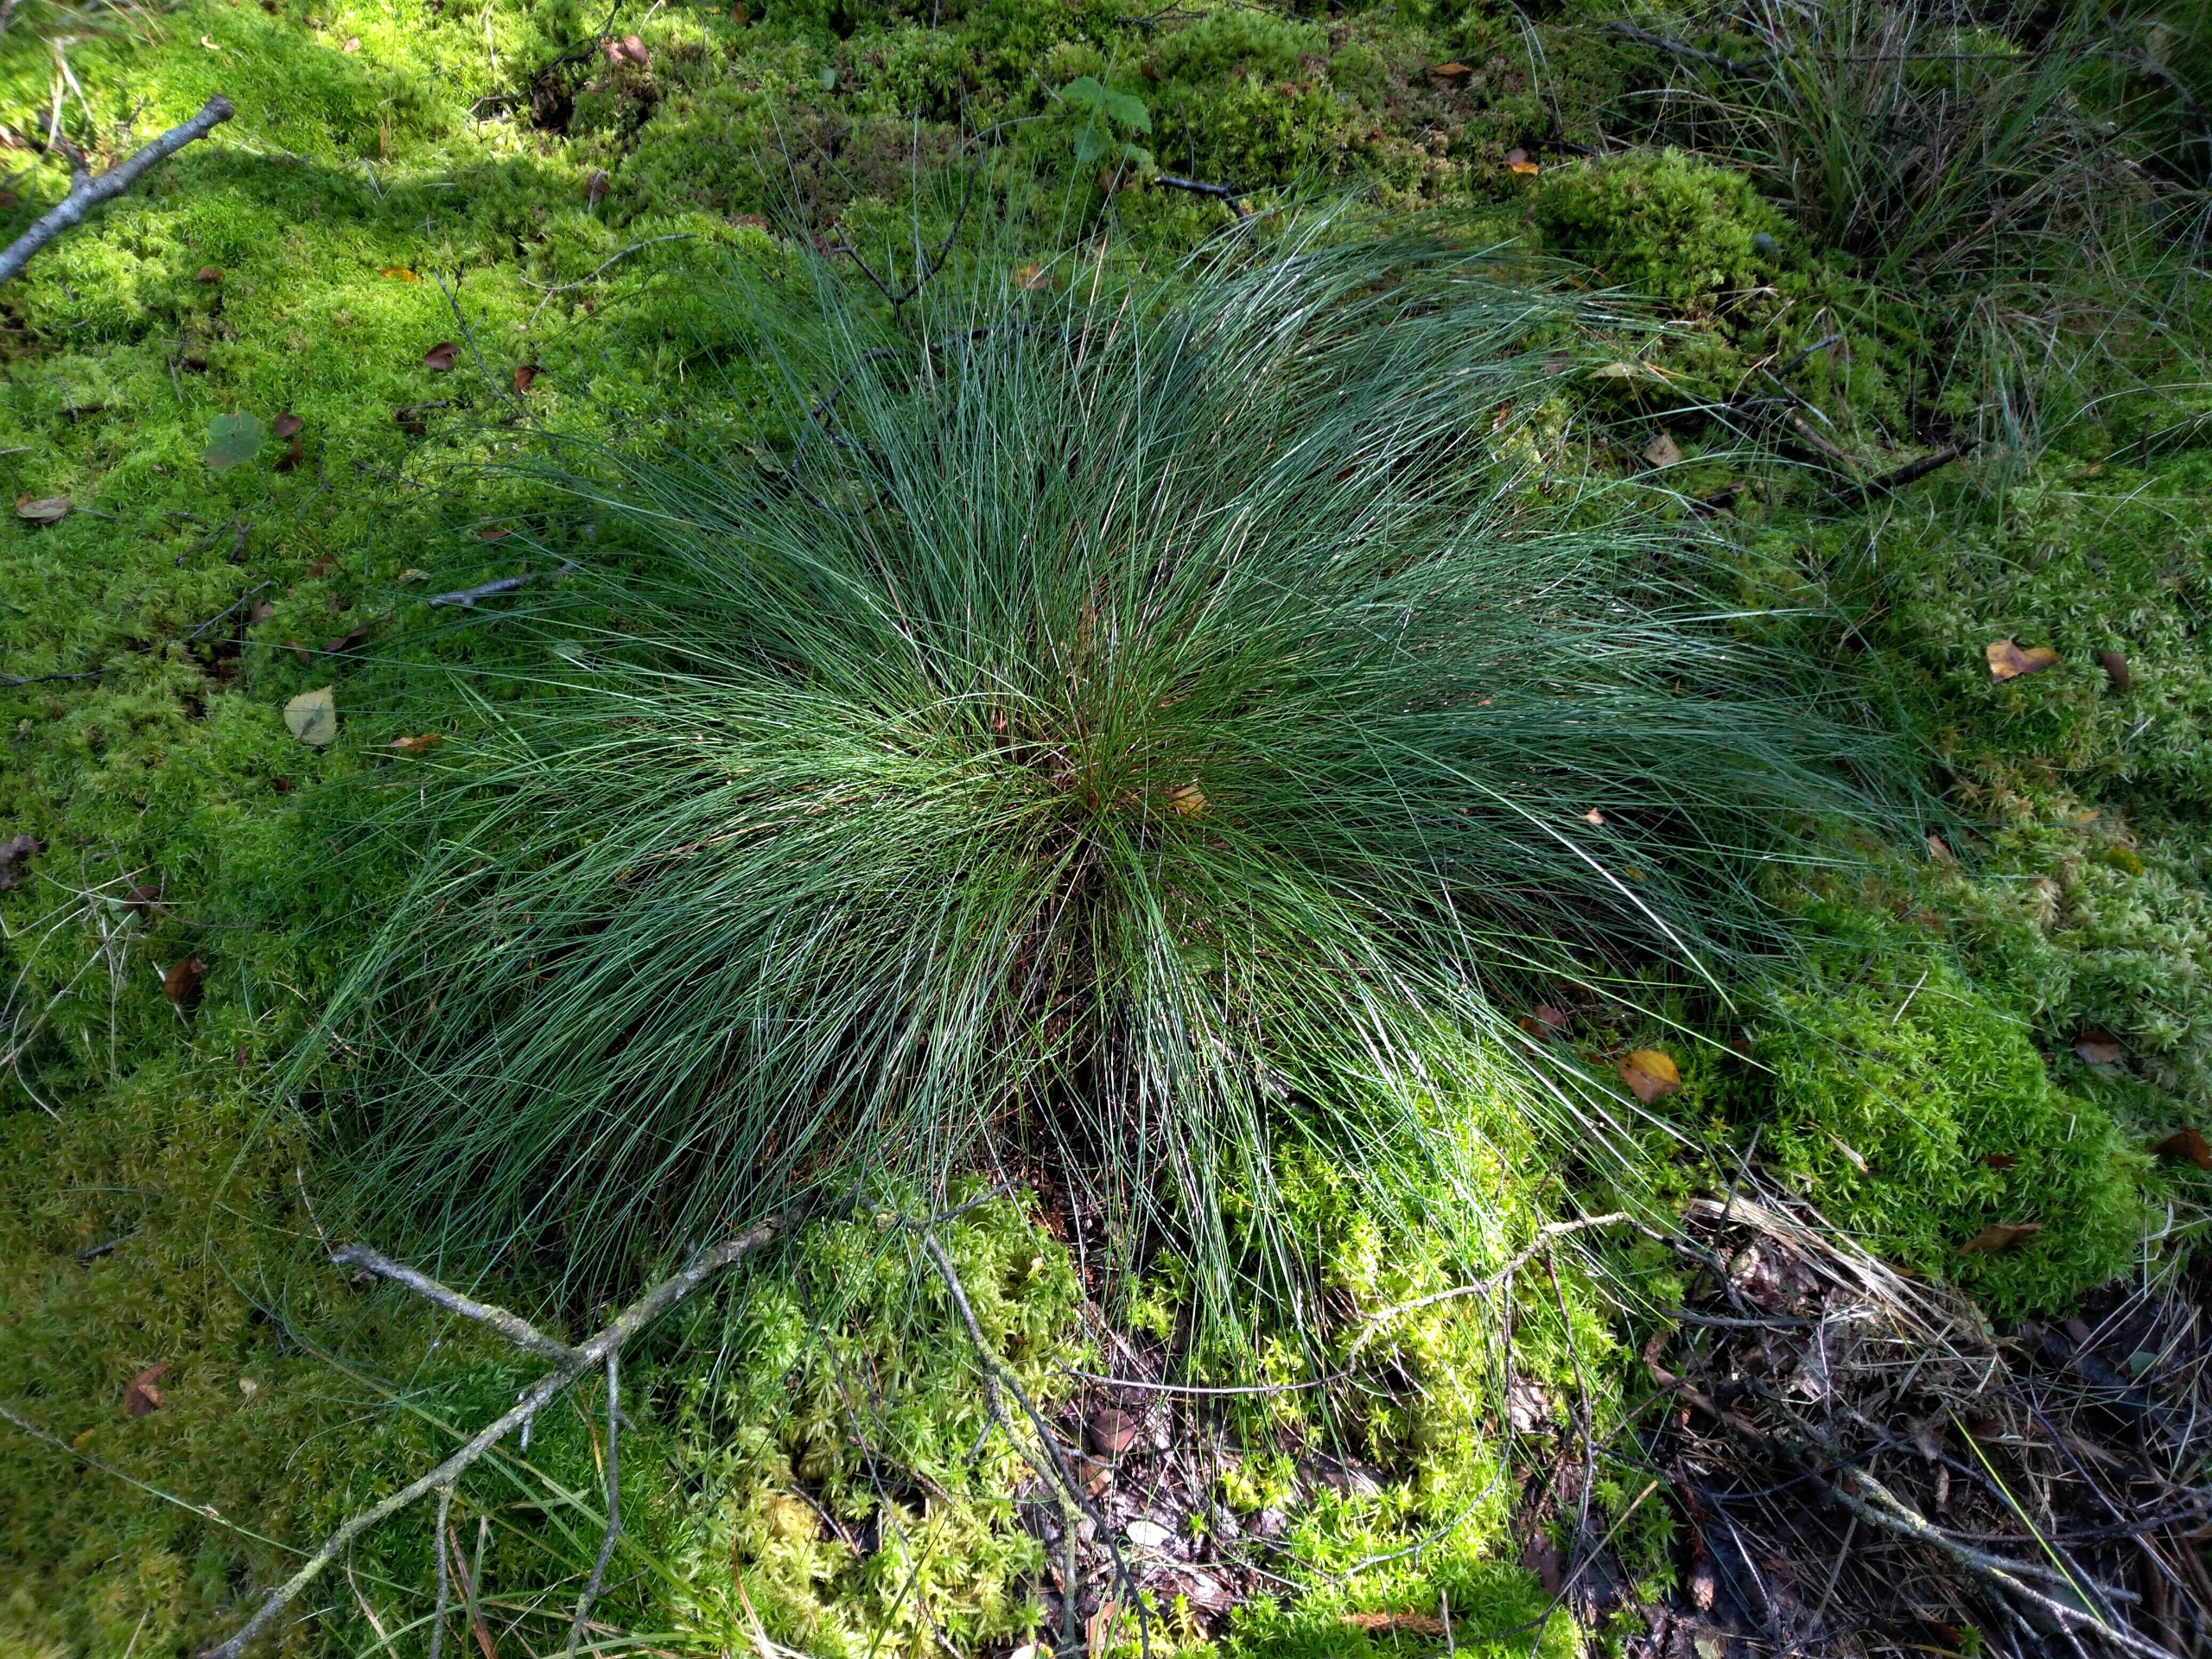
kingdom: Plantae
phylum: Tracheophyta
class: Liliopsida
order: Poales
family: Cyperaceae
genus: Eriophorum
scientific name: Eriophorum vaginatum
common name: Tue-kæruld
